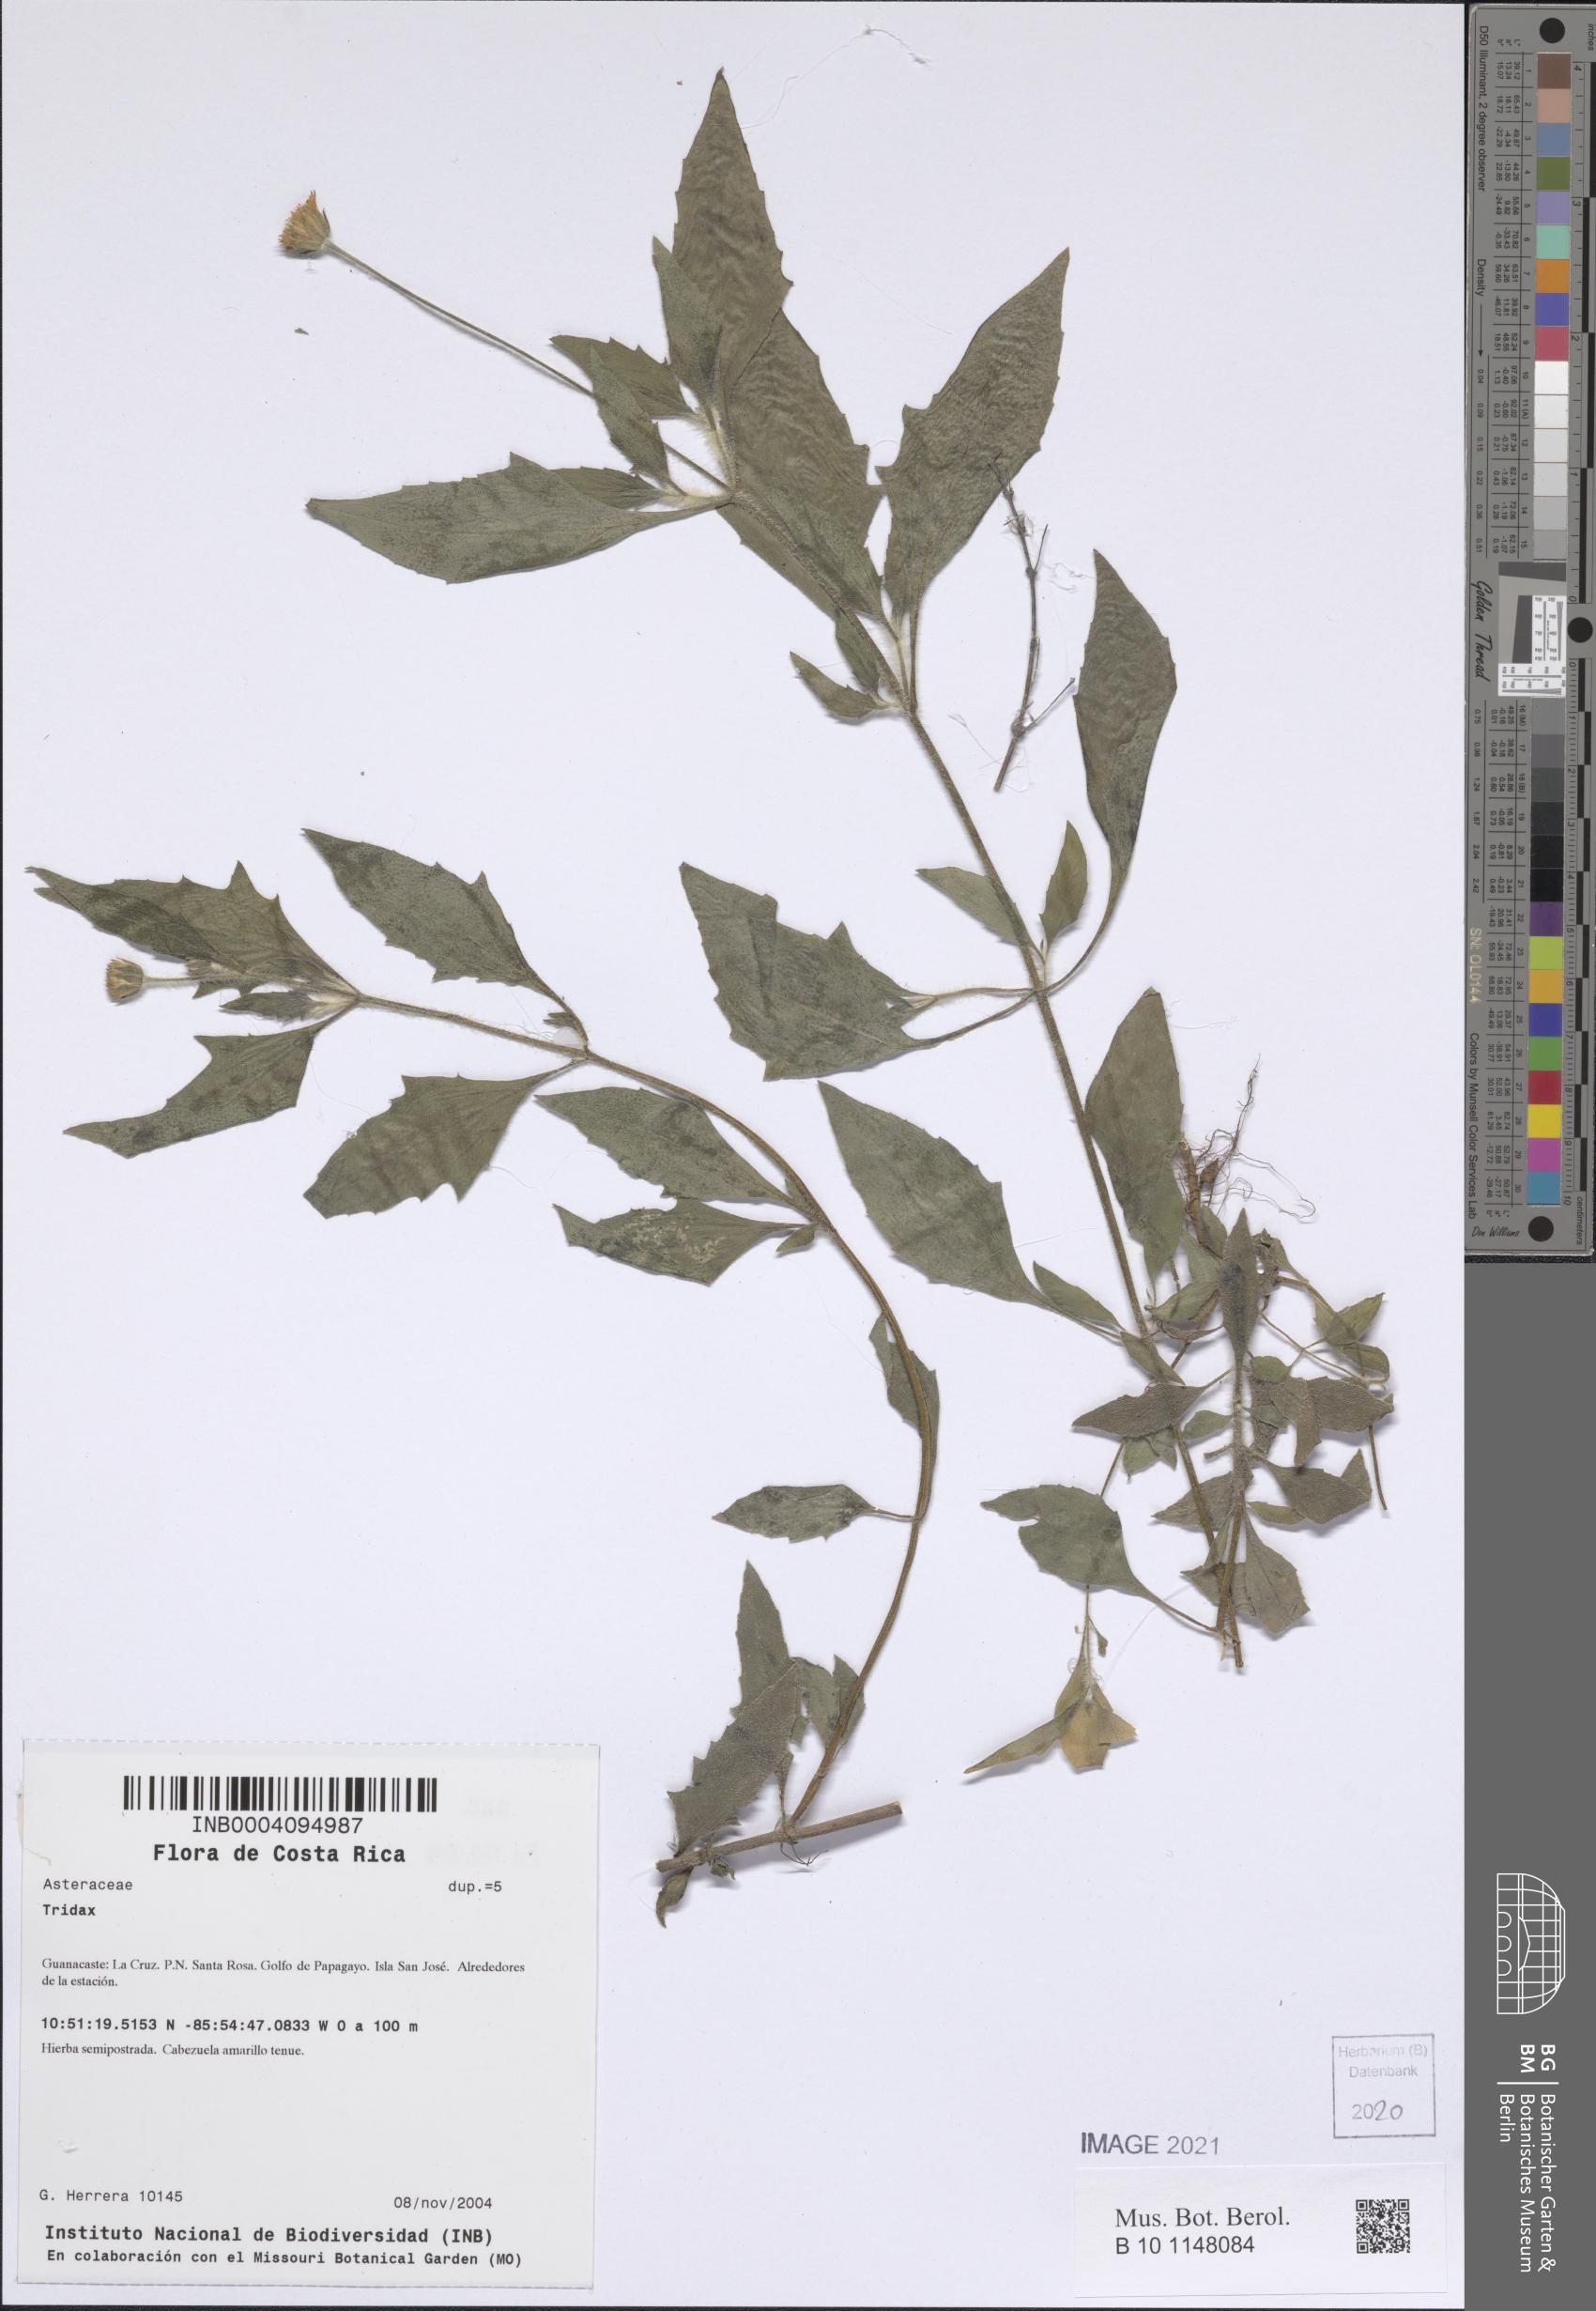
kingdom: Plantae
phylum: Tracheophyta
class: Magnoliopsida
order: Asterales
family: Asteraceae
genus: Tridax
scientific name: Tridax
